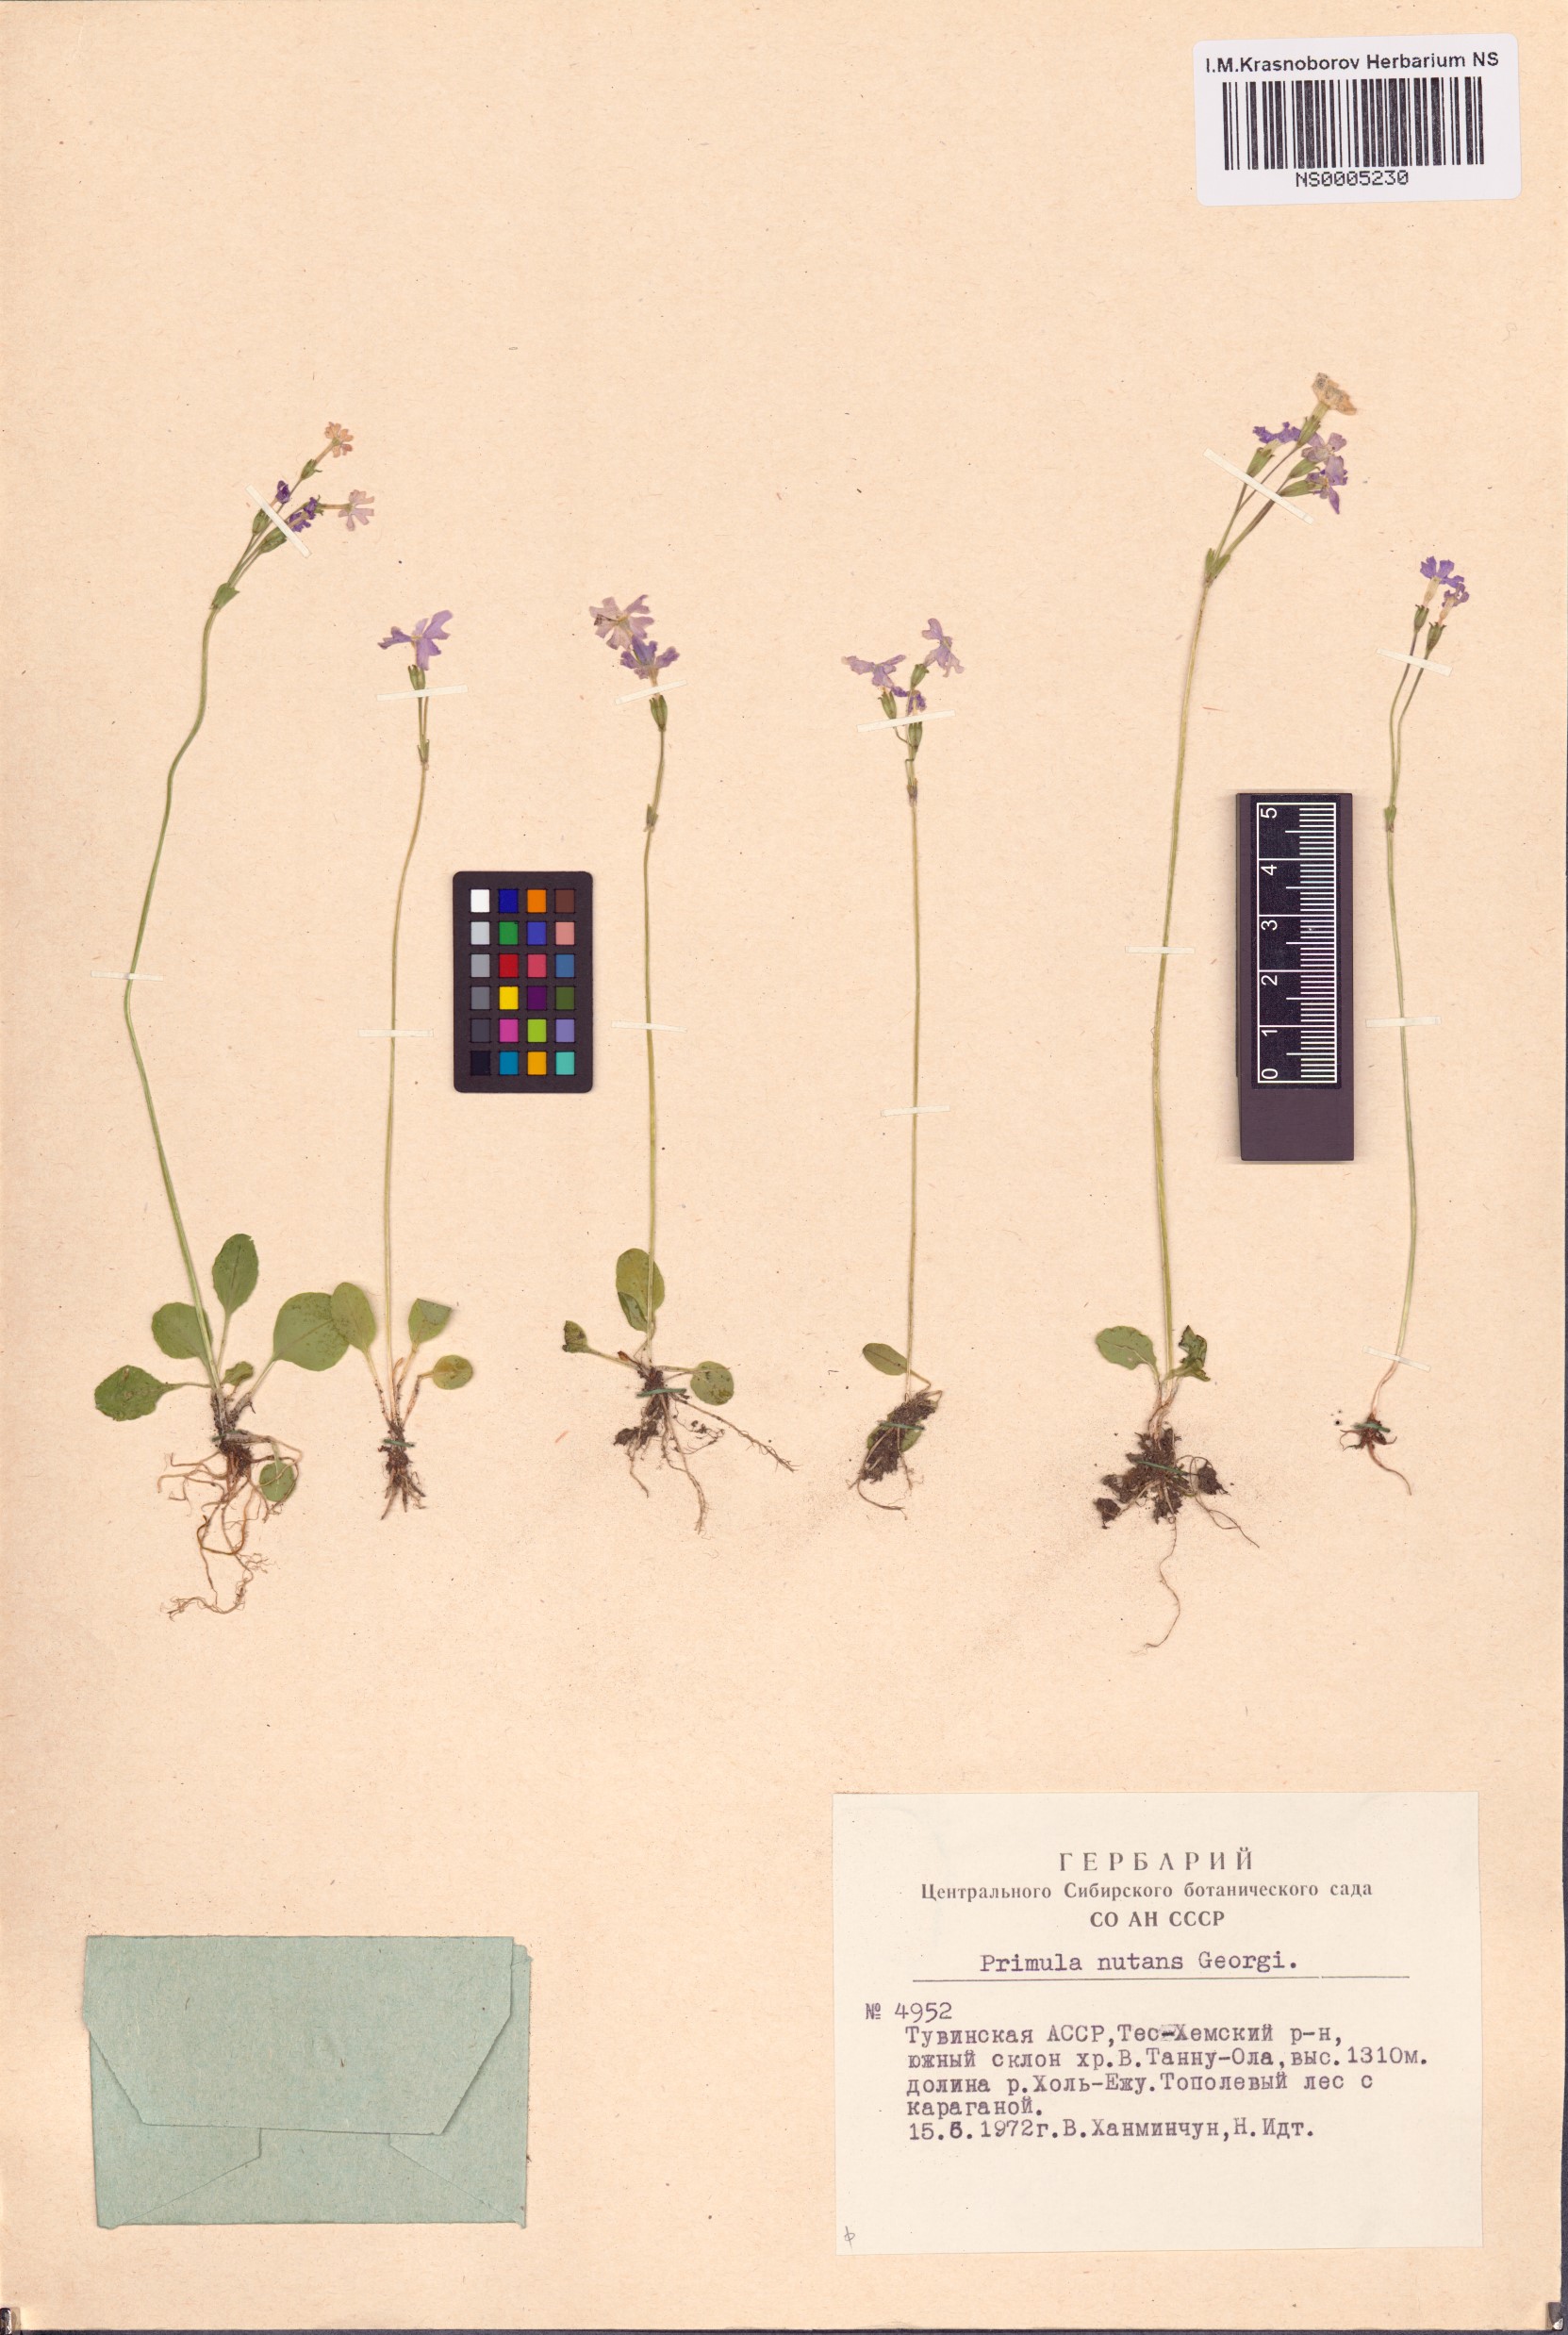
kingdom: Plantae
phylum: Tracheophyta
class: Magnoliopsida
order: Ericales
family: Primulaceae
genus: Primula
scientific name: Primula nutans
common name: Siberian primrose
